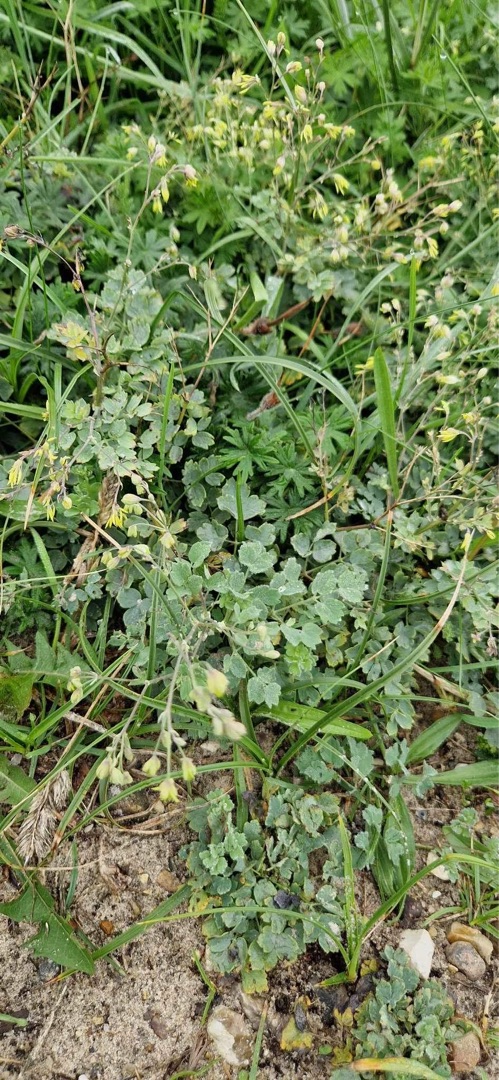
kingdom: Plantae
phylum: Tracheophyta
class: Magnoliopsida
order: Ranunculales
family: Ranunculaceae
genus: Thalictrum
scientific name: Thalictrum minus
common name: Liden frøstjerne
